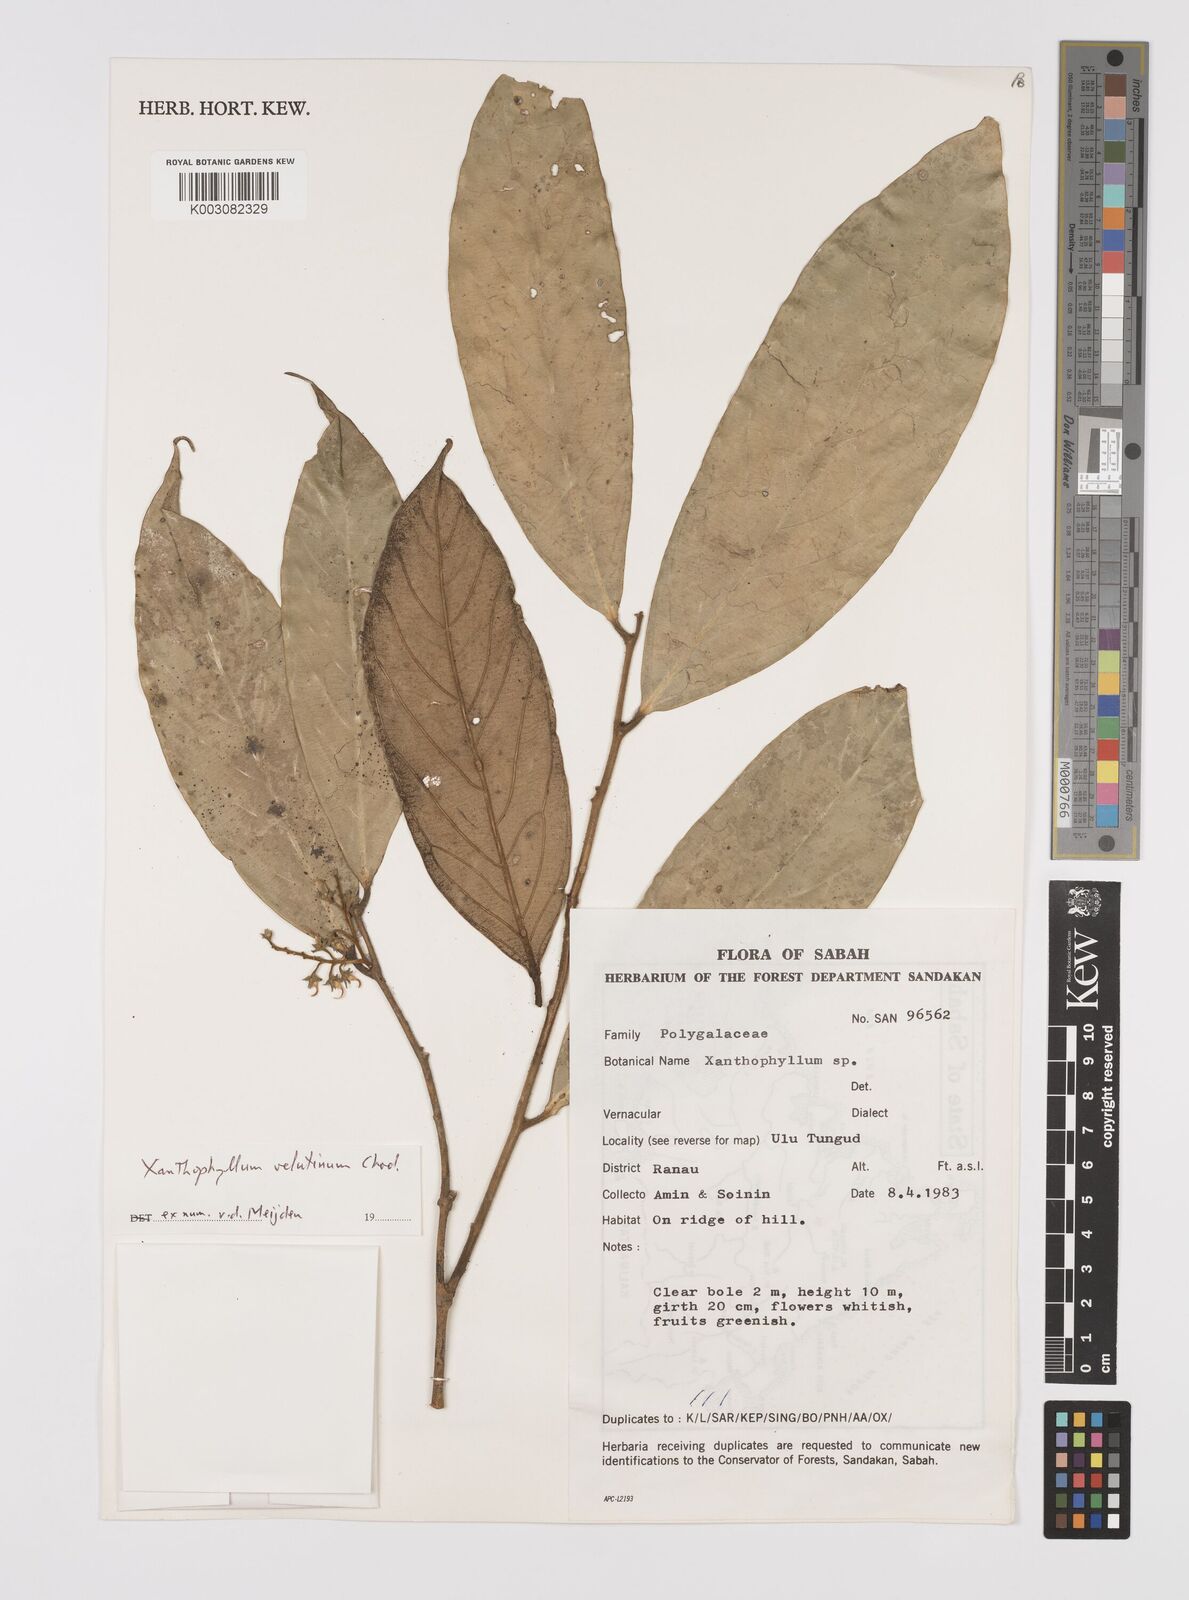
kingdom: Plantae
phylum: Tracheophyta
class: Magnoliopsida
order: Fabales
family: Polygalaceae
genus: Xanthophyllum
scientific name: Xanthophyllum velutinum
